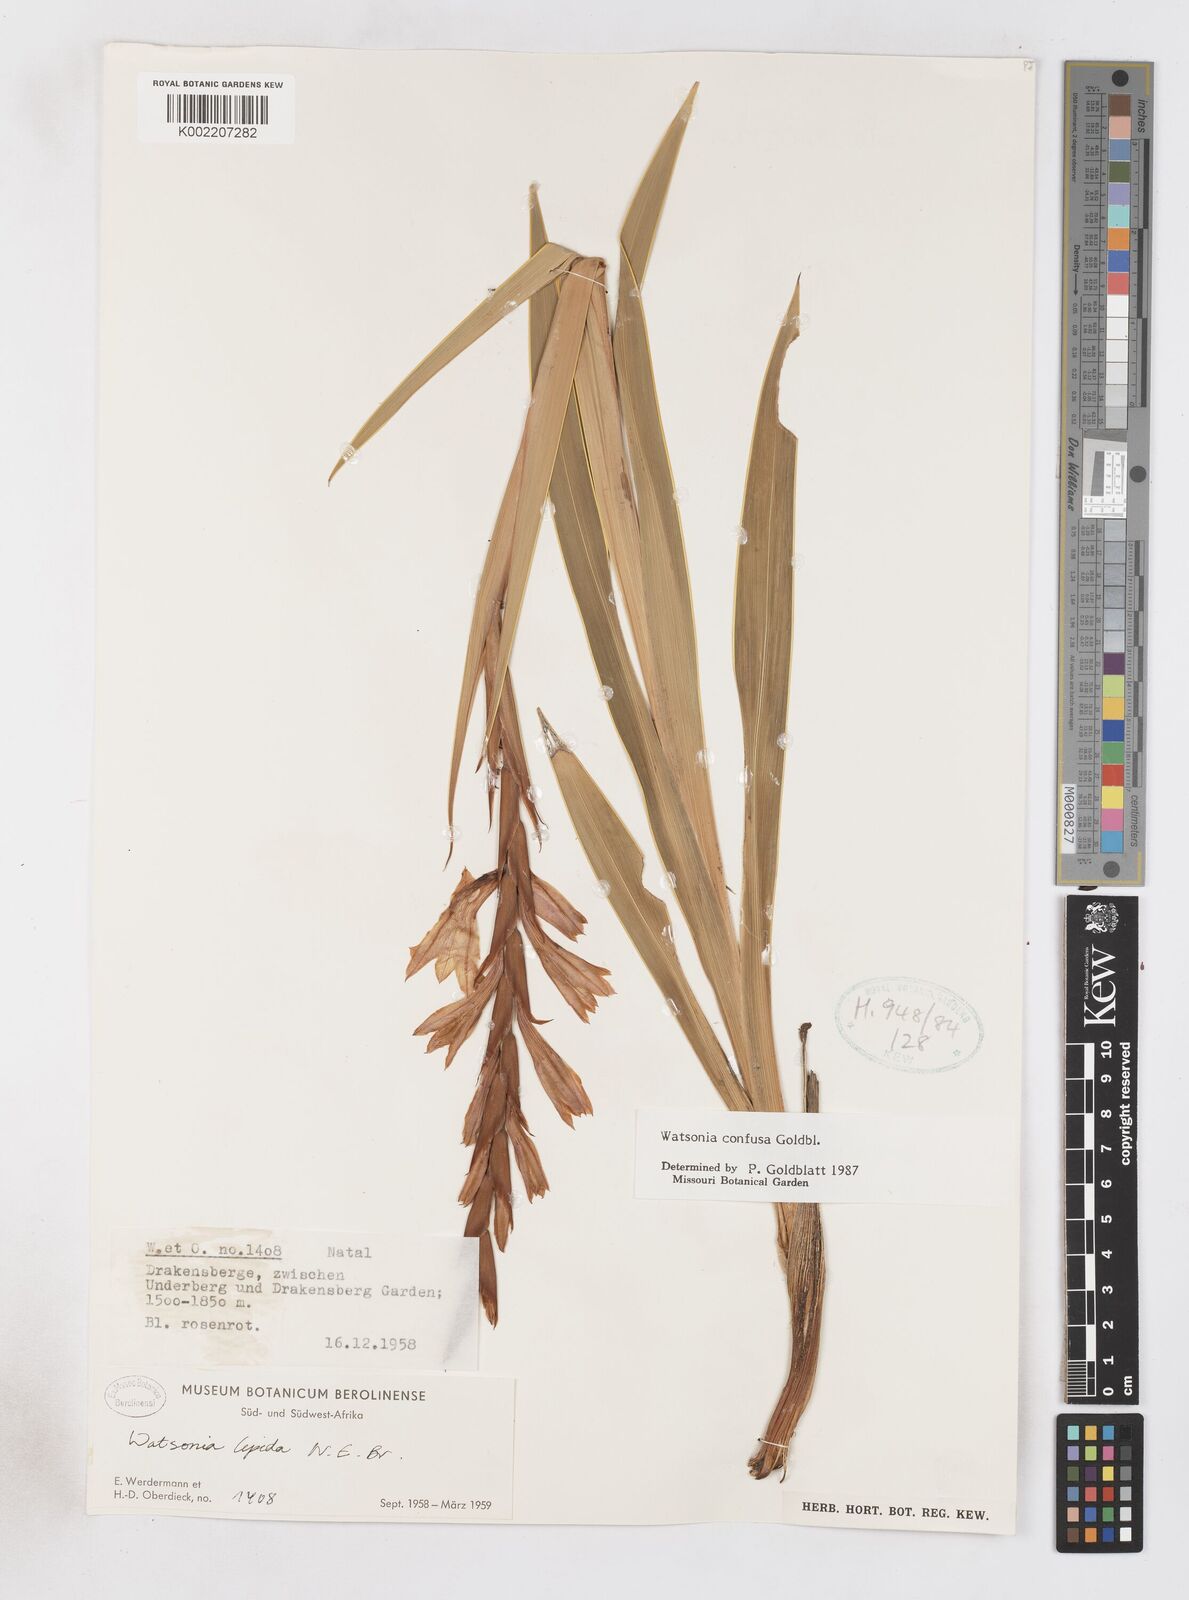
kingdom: Plantae
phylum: Tracheophyta
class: Liliopsida
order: Asparagales
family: Iridaceae
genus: Watsonia
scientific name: Watsonia confusa
